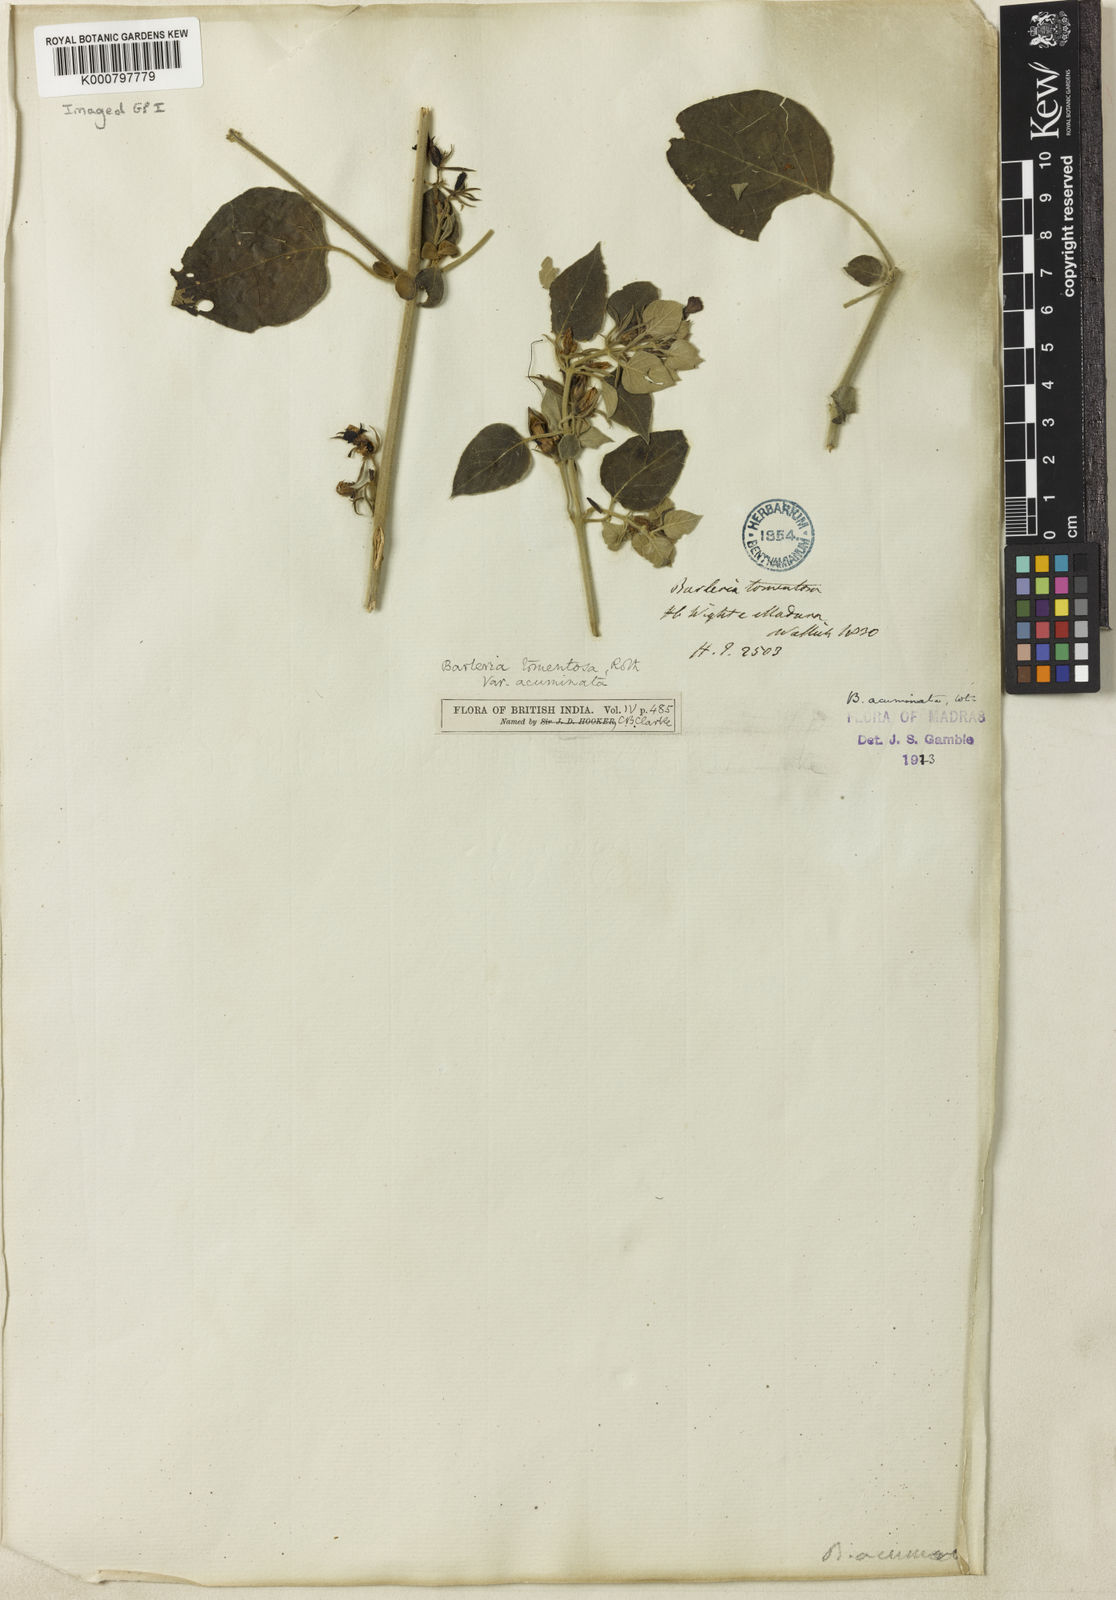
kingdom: Plantae
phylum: Tracheophyta
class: Magnoliopsida
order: Lamiales
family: Acanthaceae
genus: Barleria
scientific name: Barleria tomentosa
